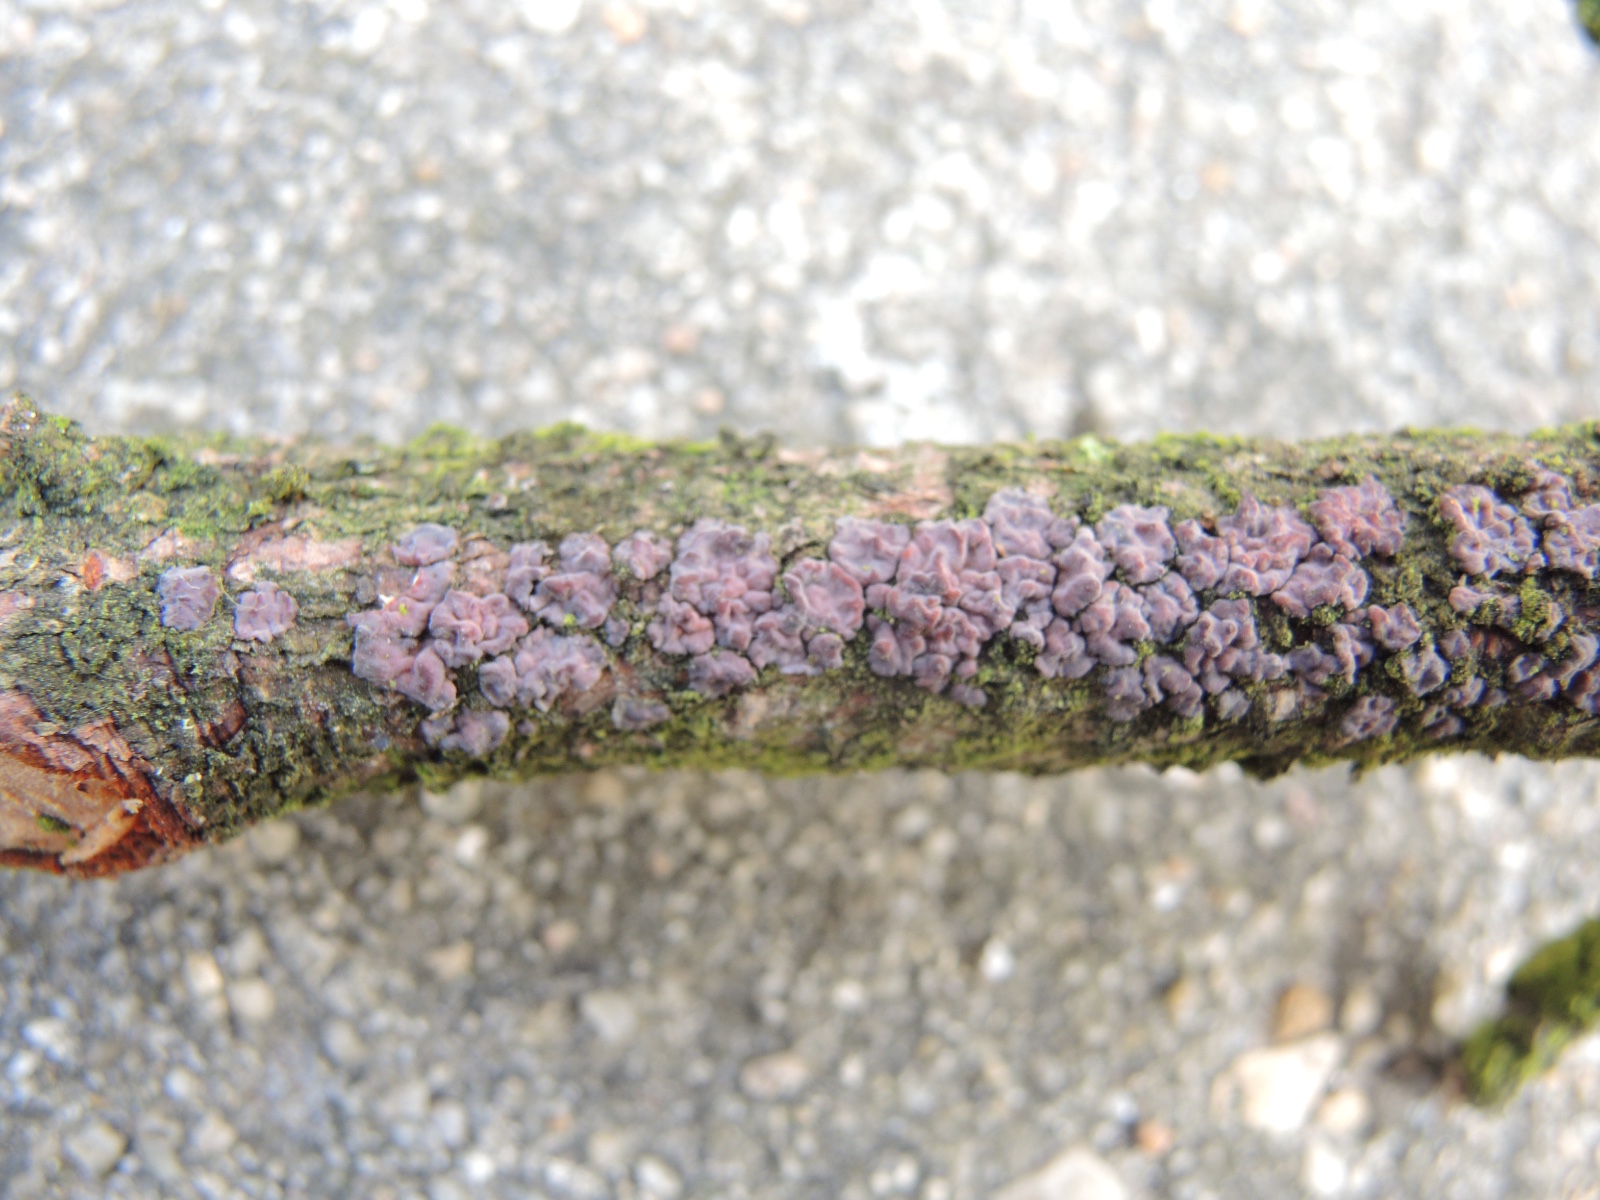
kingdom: Fungi
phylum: Basidiomycota
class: Agaricomycetes
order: Russulales
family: Peniophoraceae
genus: Peniophora
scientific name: Peniophora pini
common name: fyrre-voksskind
